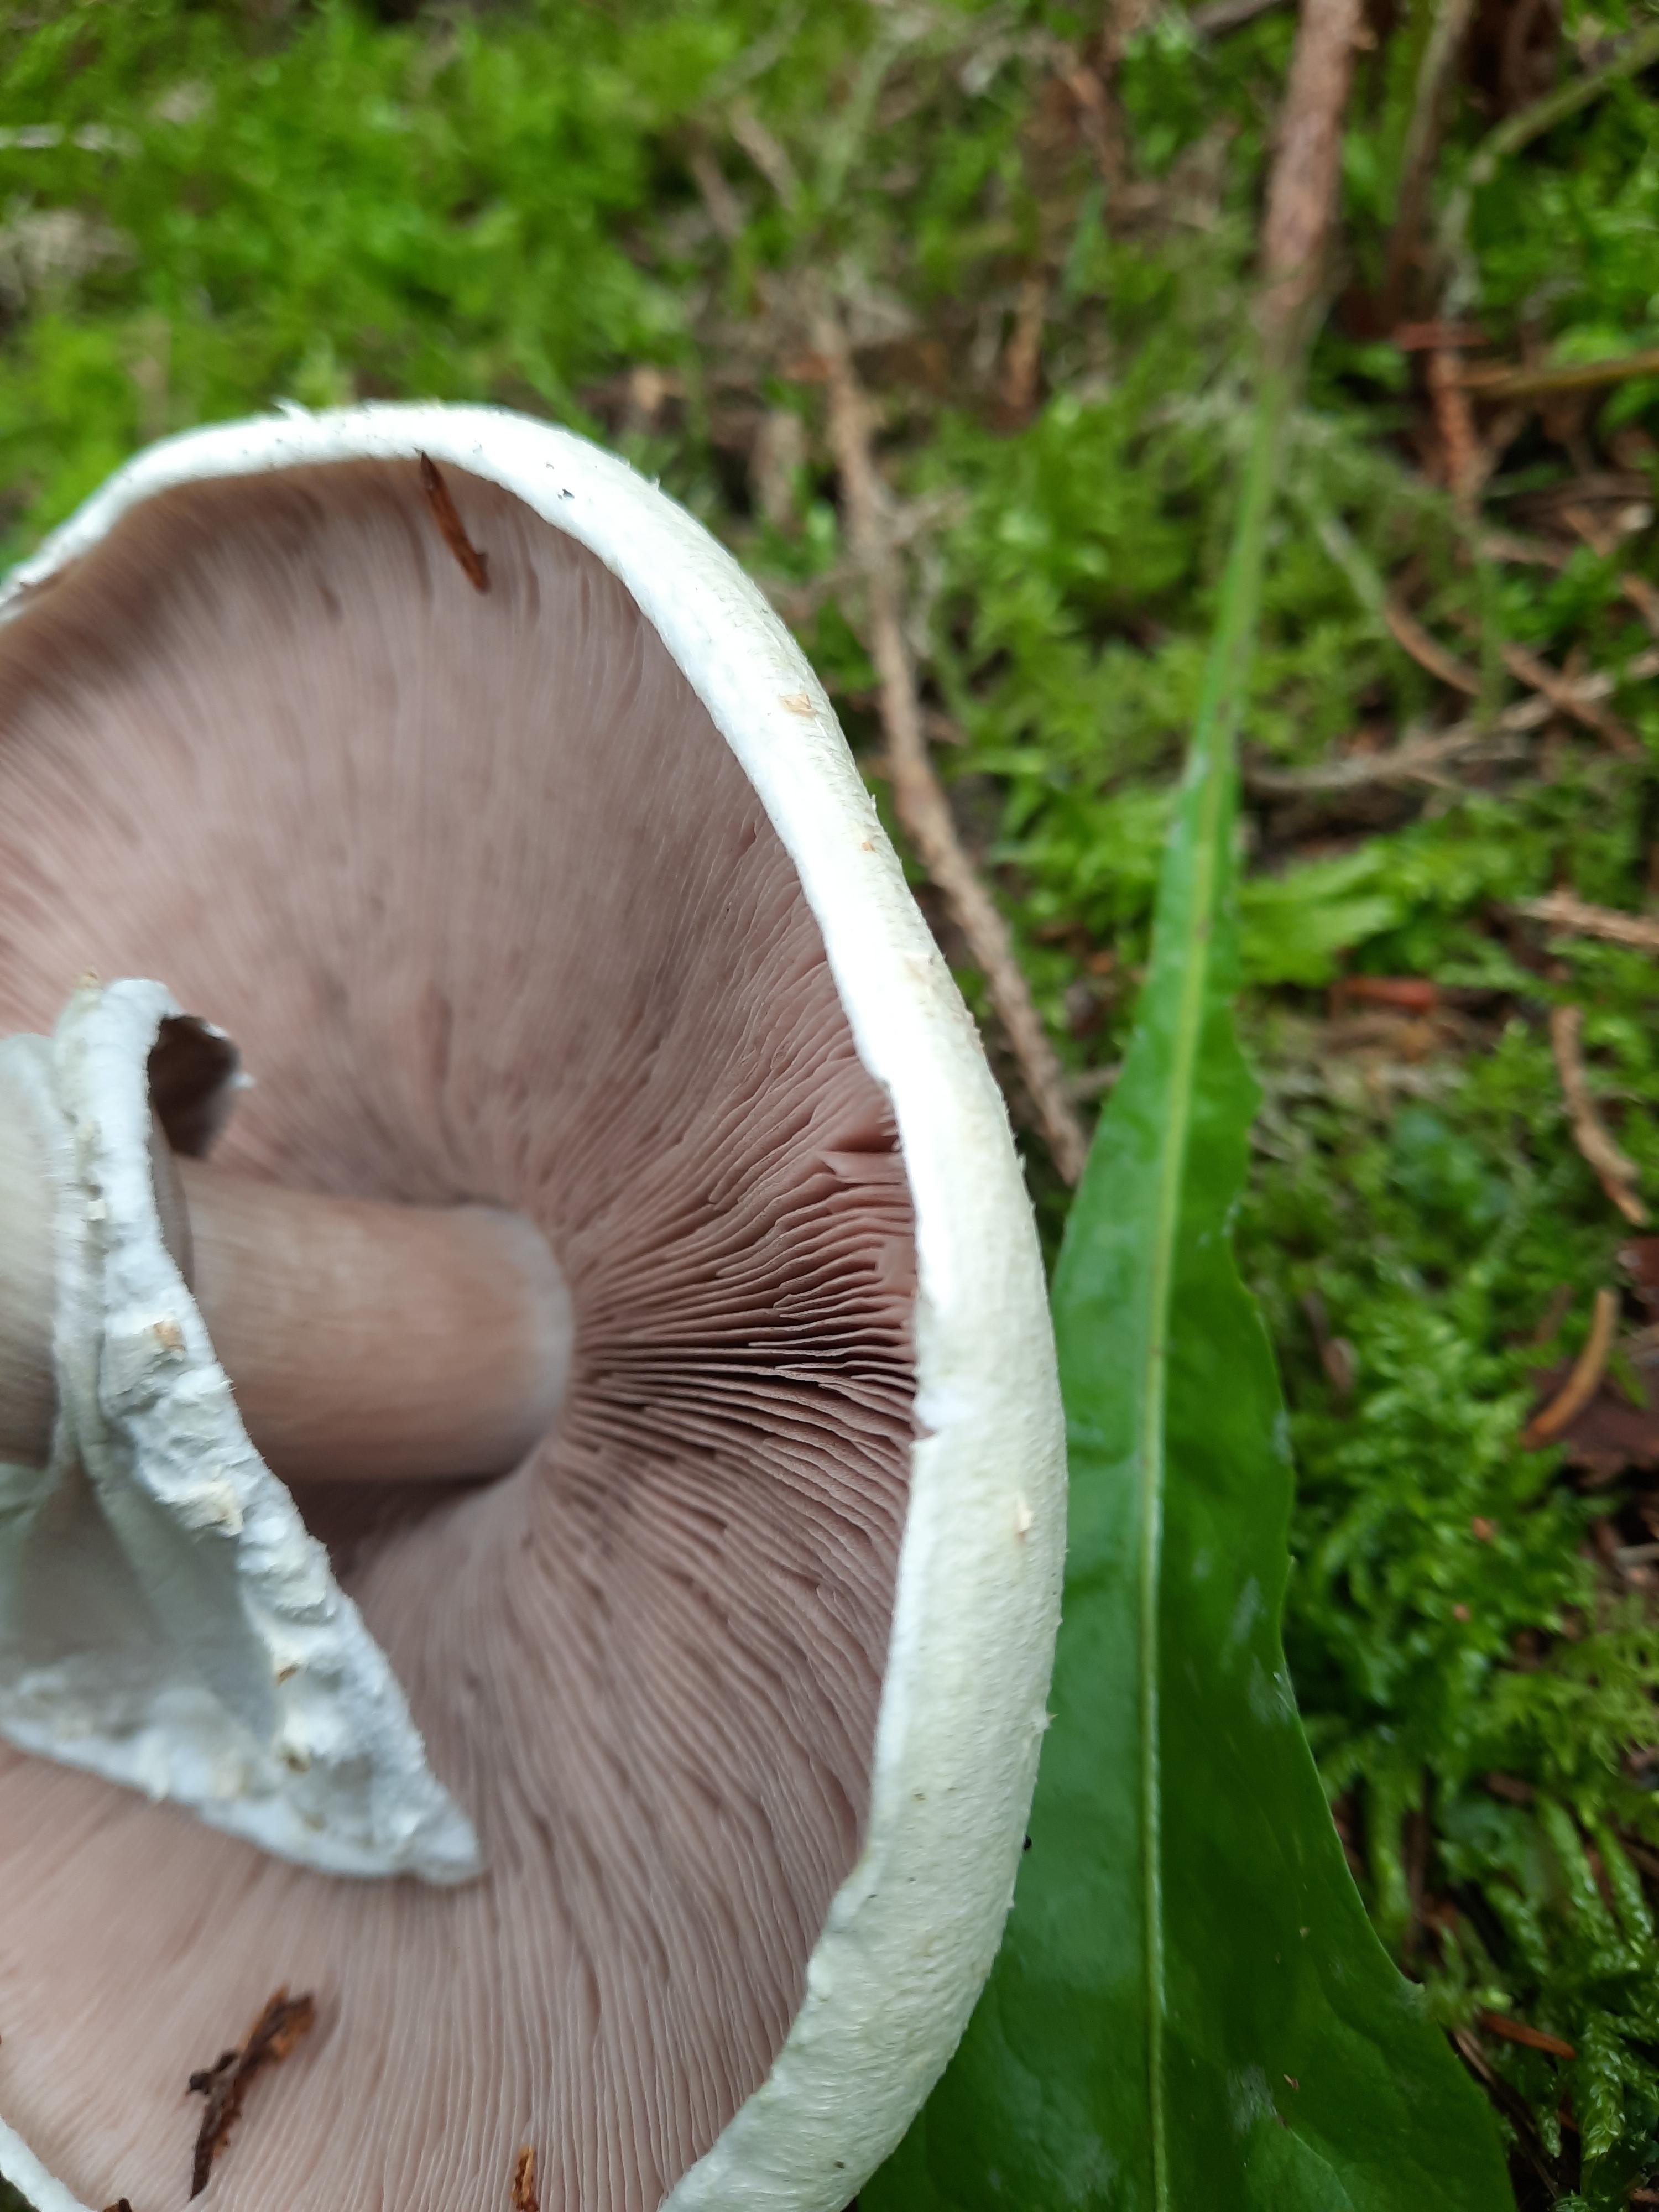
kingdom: Fungi
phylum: Basidiomycota
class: Agaricomycetes
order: Agaricales
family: Agaricaceae
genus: Agaricus
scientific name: Agaricus
